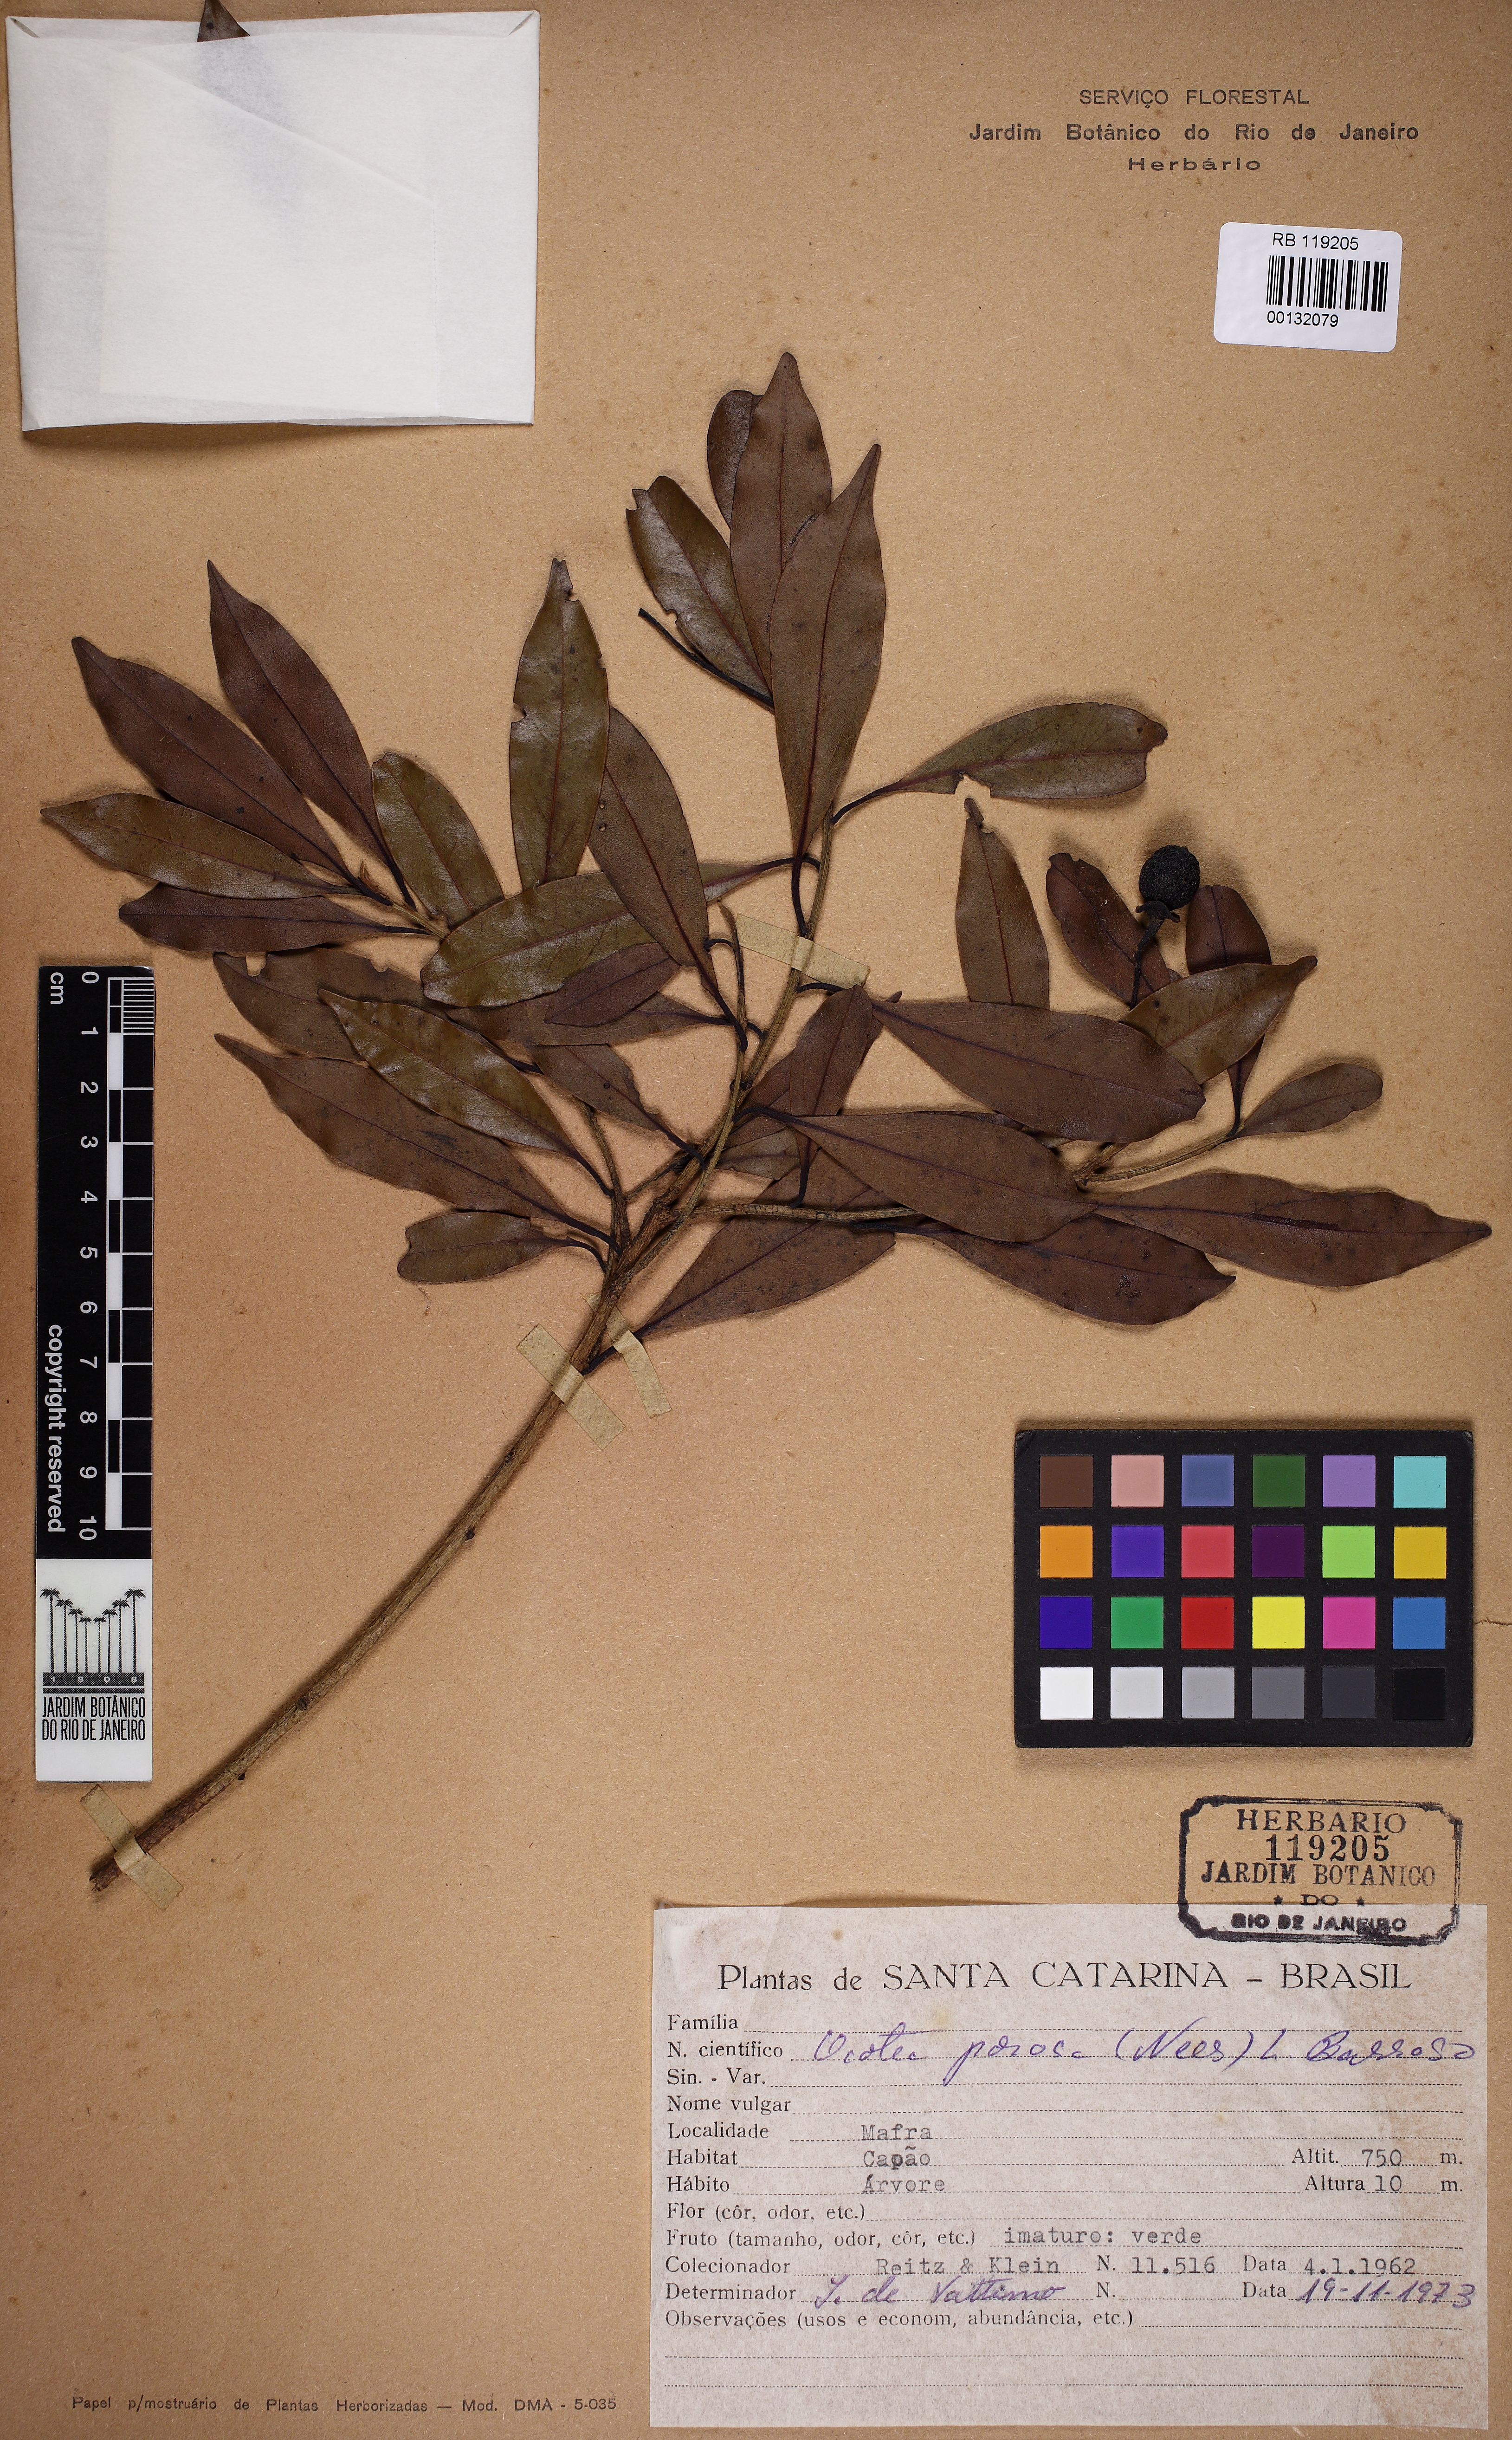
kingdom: Plantae
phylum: Tracheophyta
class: Magnoliopsida
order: Laurales
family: Lauraceae
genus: Ocotea
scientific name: Ocotea porosa
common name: Brazilian-walnut
